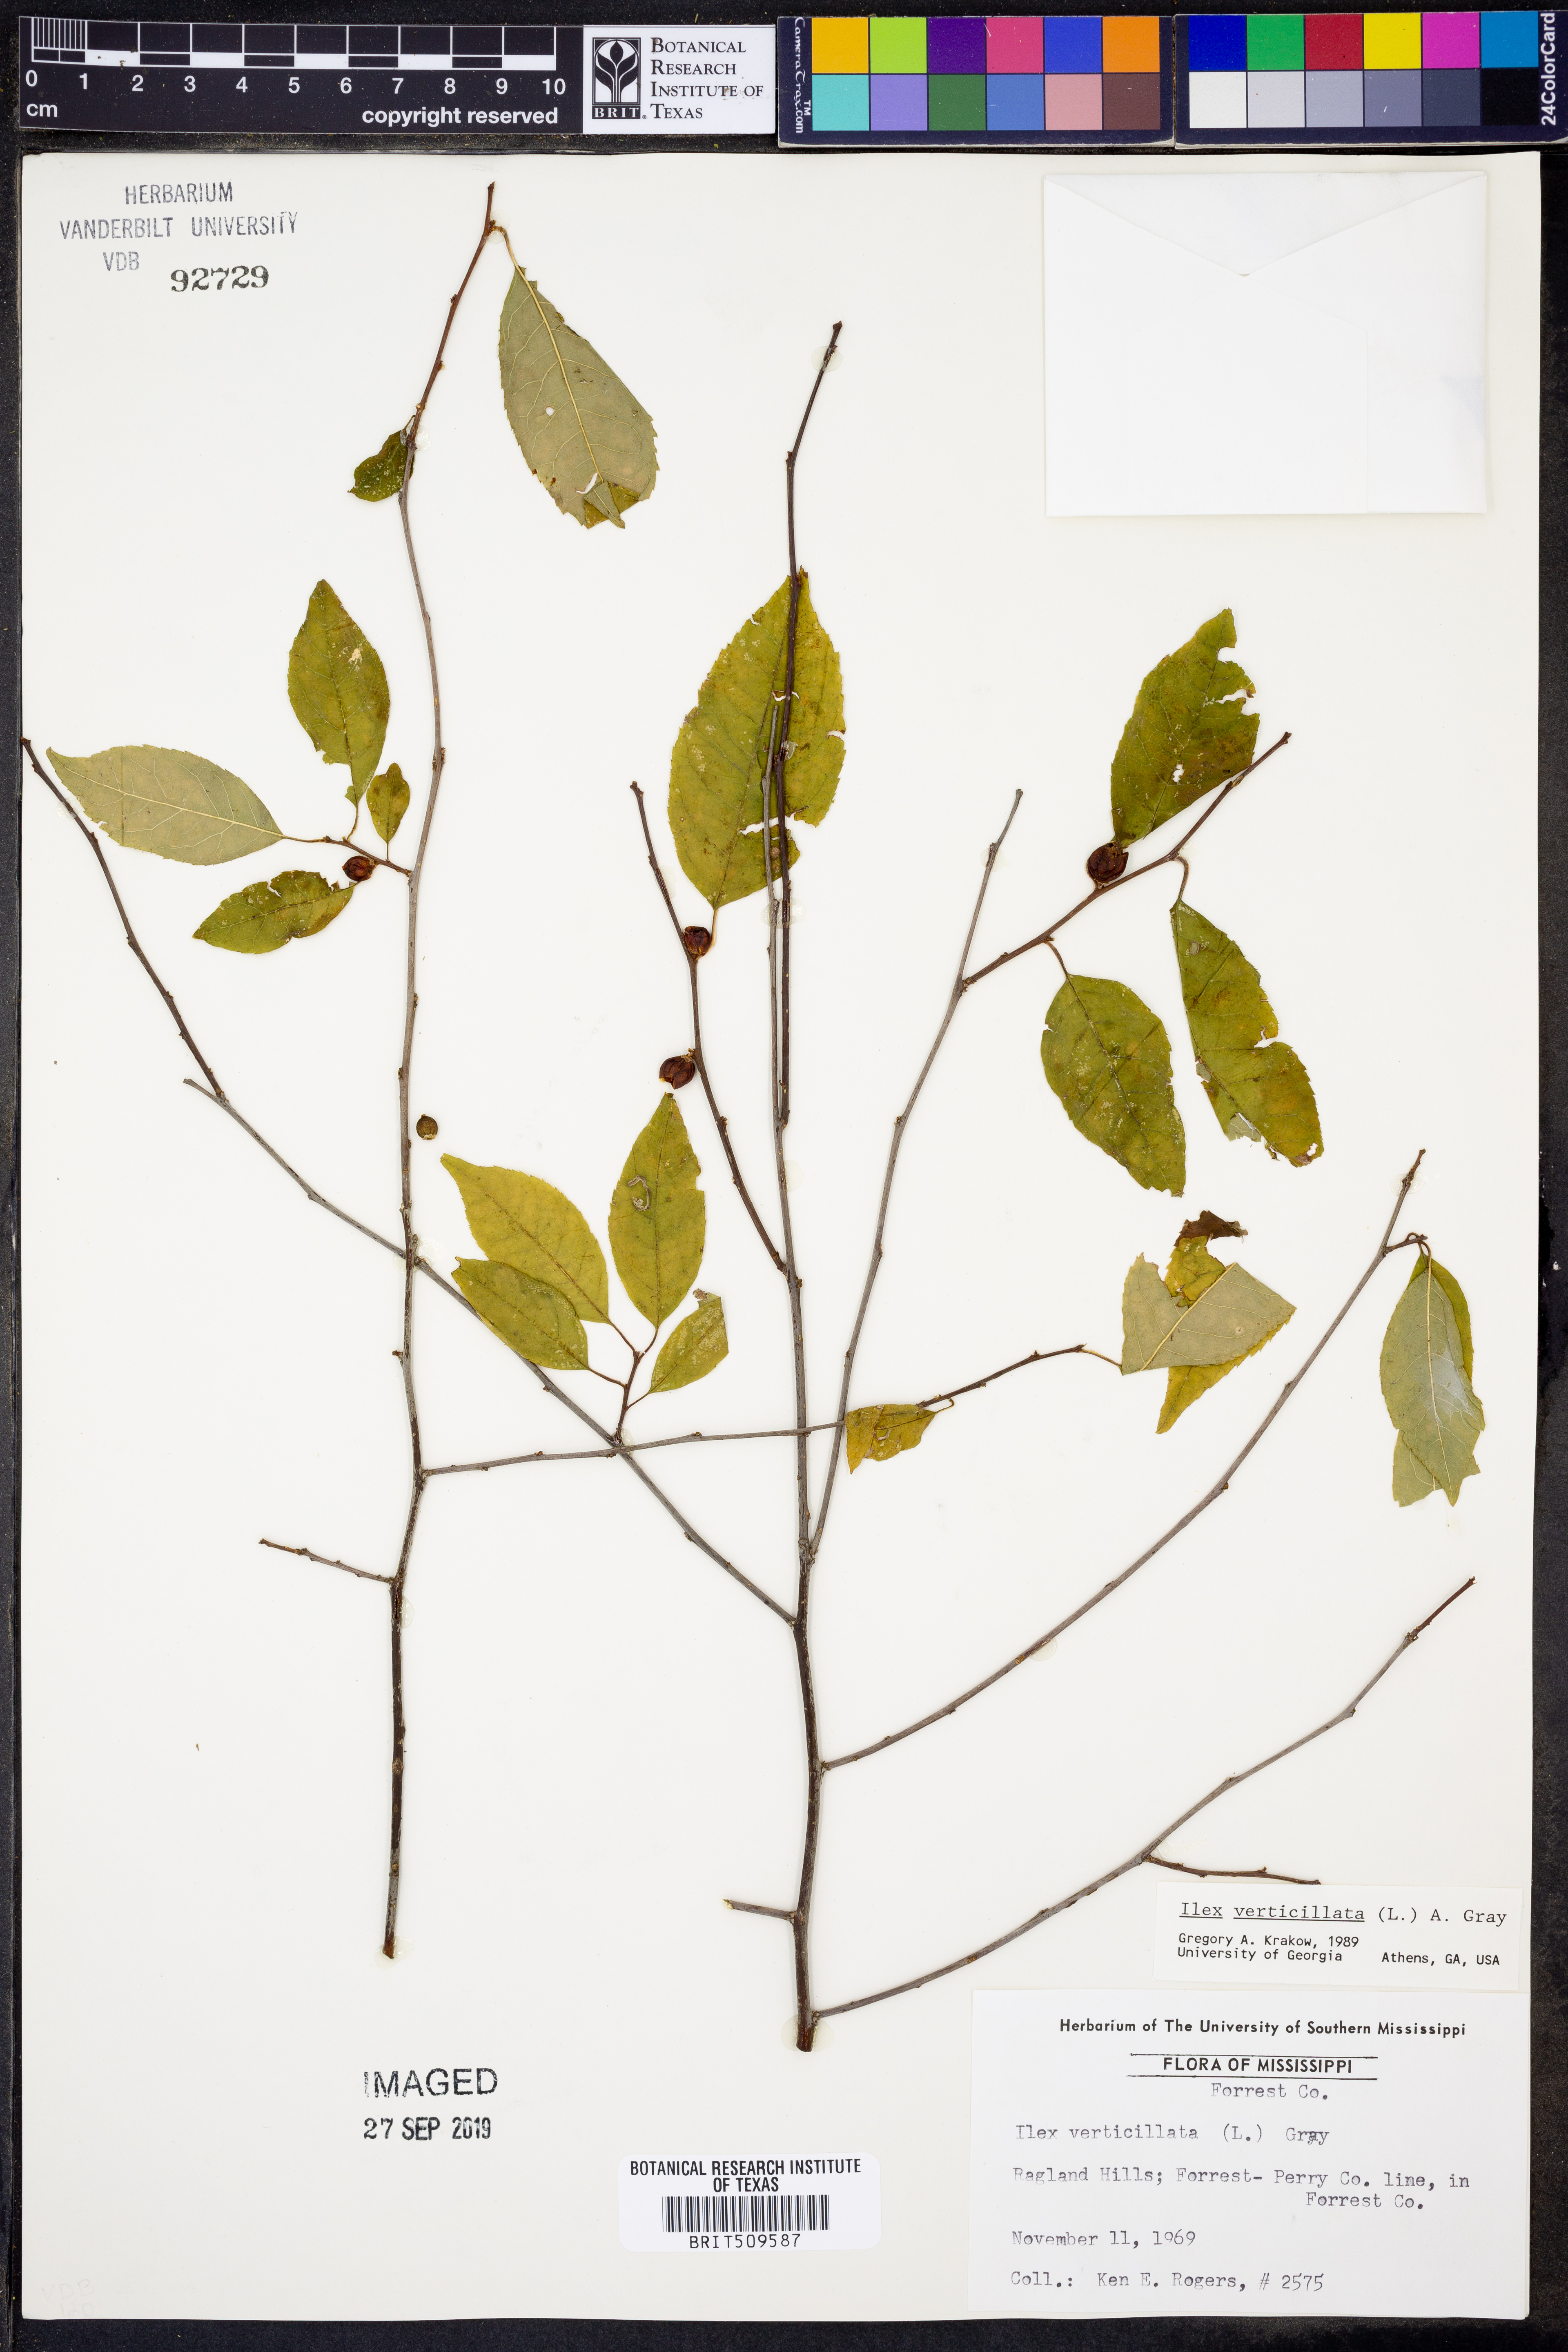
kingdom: Plantae
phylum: Tracheophyta
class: Magnoliopsida
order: Aquifoliales
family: Aquifoliaceae
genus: Ilex
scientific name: Ilex verticillata
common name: Virginia winterberry
